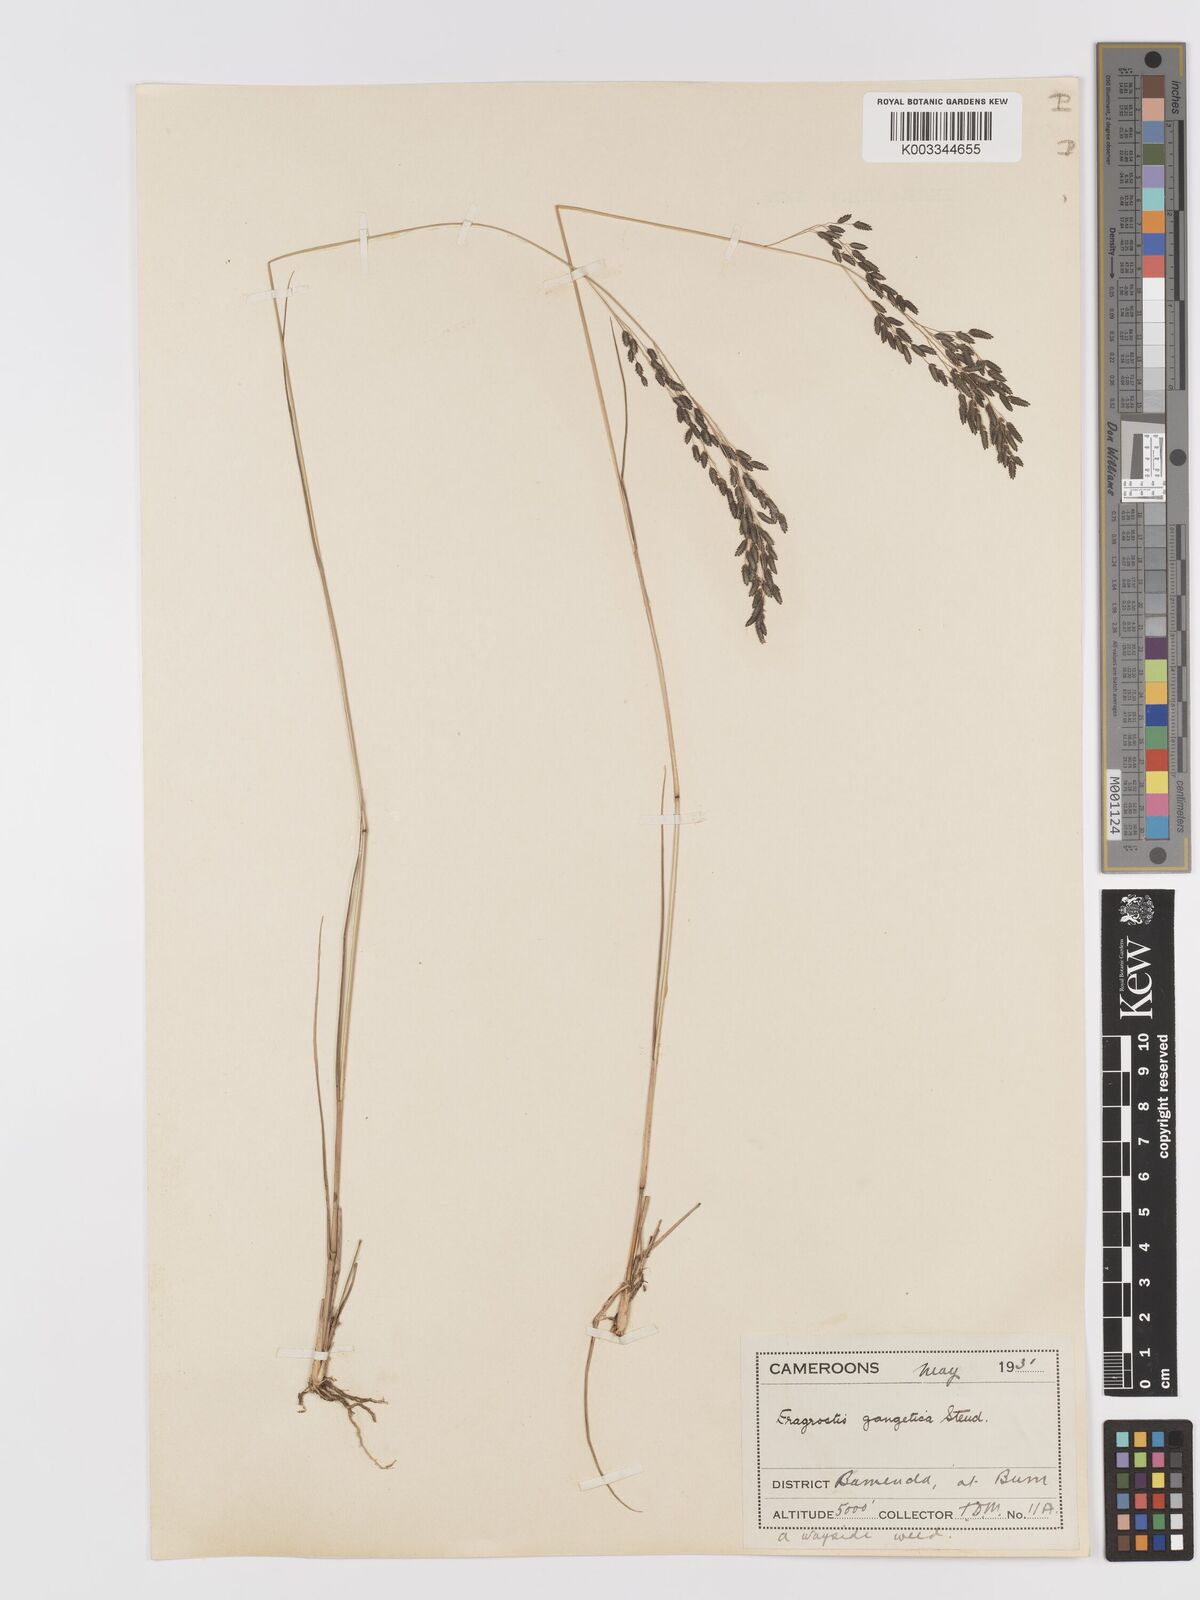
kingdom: Plantae
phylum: Tracheophyta
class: Liliopsida
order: Poales
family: Poaceae
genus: Eragrostis
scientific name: Eragrostis atrovirens
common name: Thalia lovegrass
